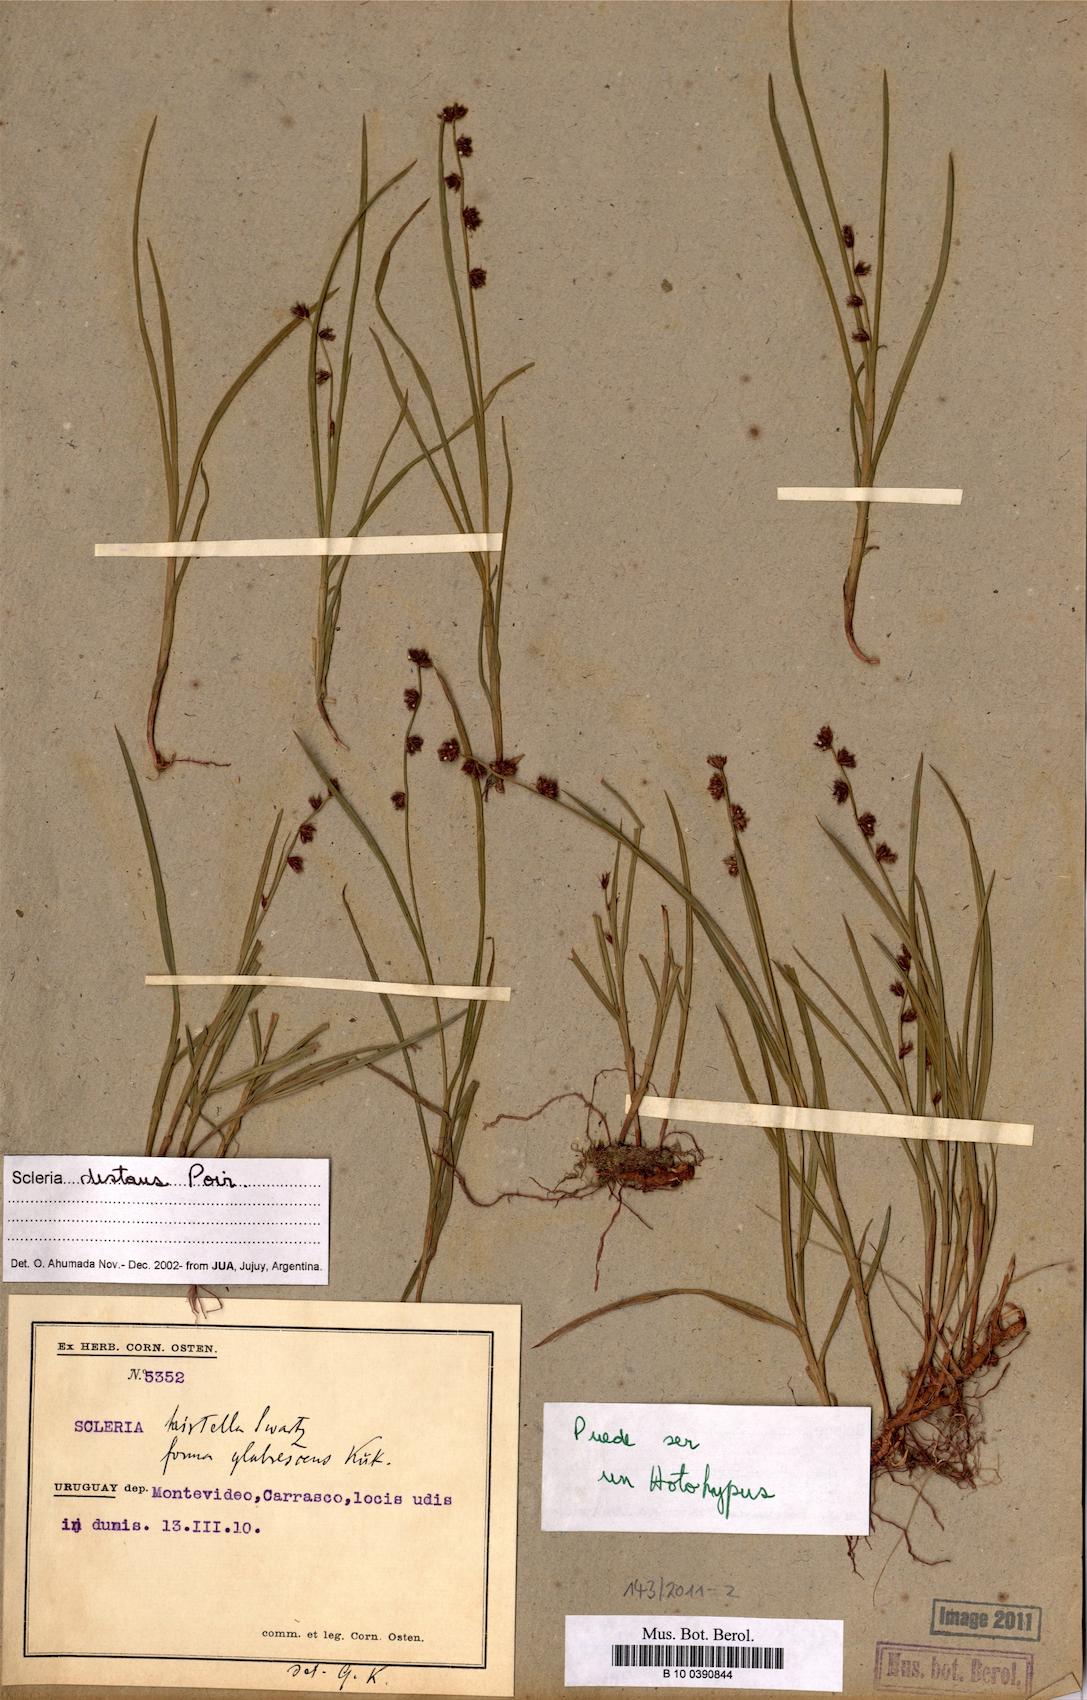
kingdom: Plantae
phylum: Tracheophyta
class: Liliopsida
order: Poales
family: Cyperaceae
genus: Scleria
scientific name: Scleria distans
